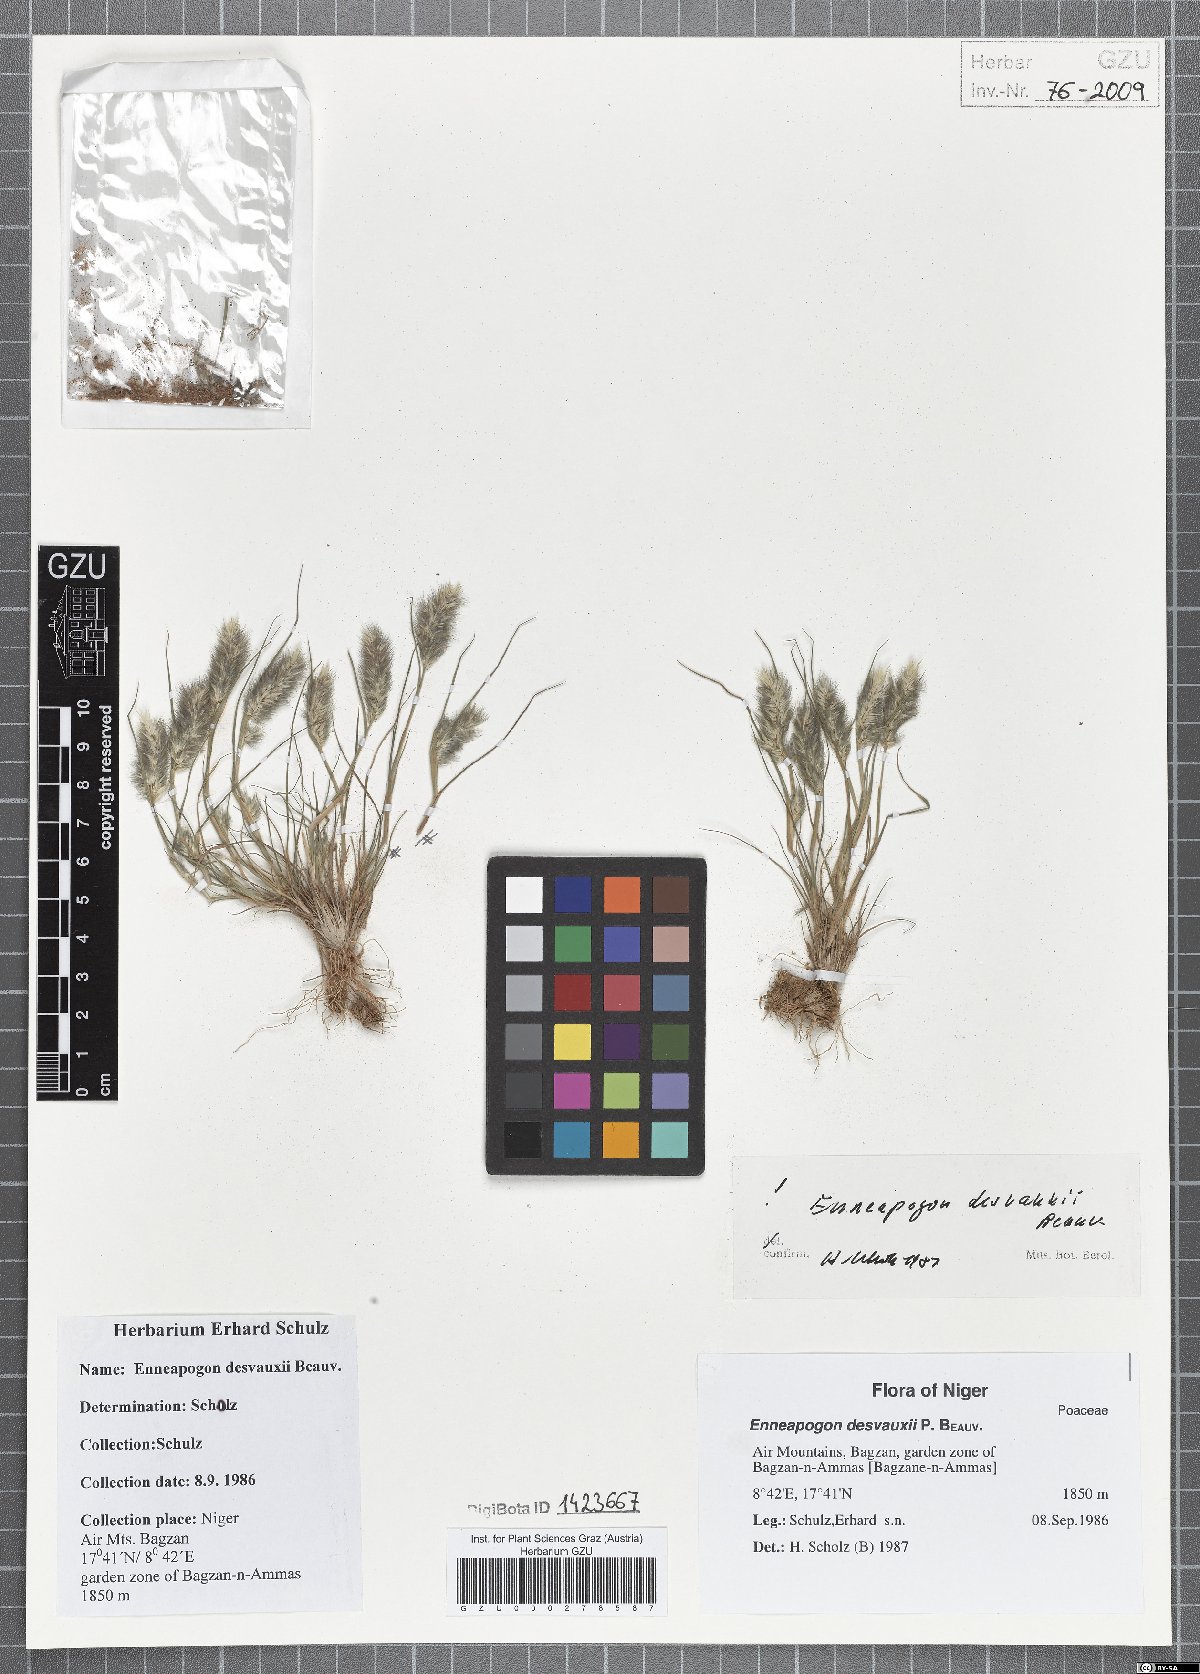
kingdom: Plantae
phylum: Tracheophyta
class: Liliopsida
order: Poales
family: Poaceae
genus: Enneapogon
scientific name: Enneapogon desvauxii
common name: Feather pappus grass
